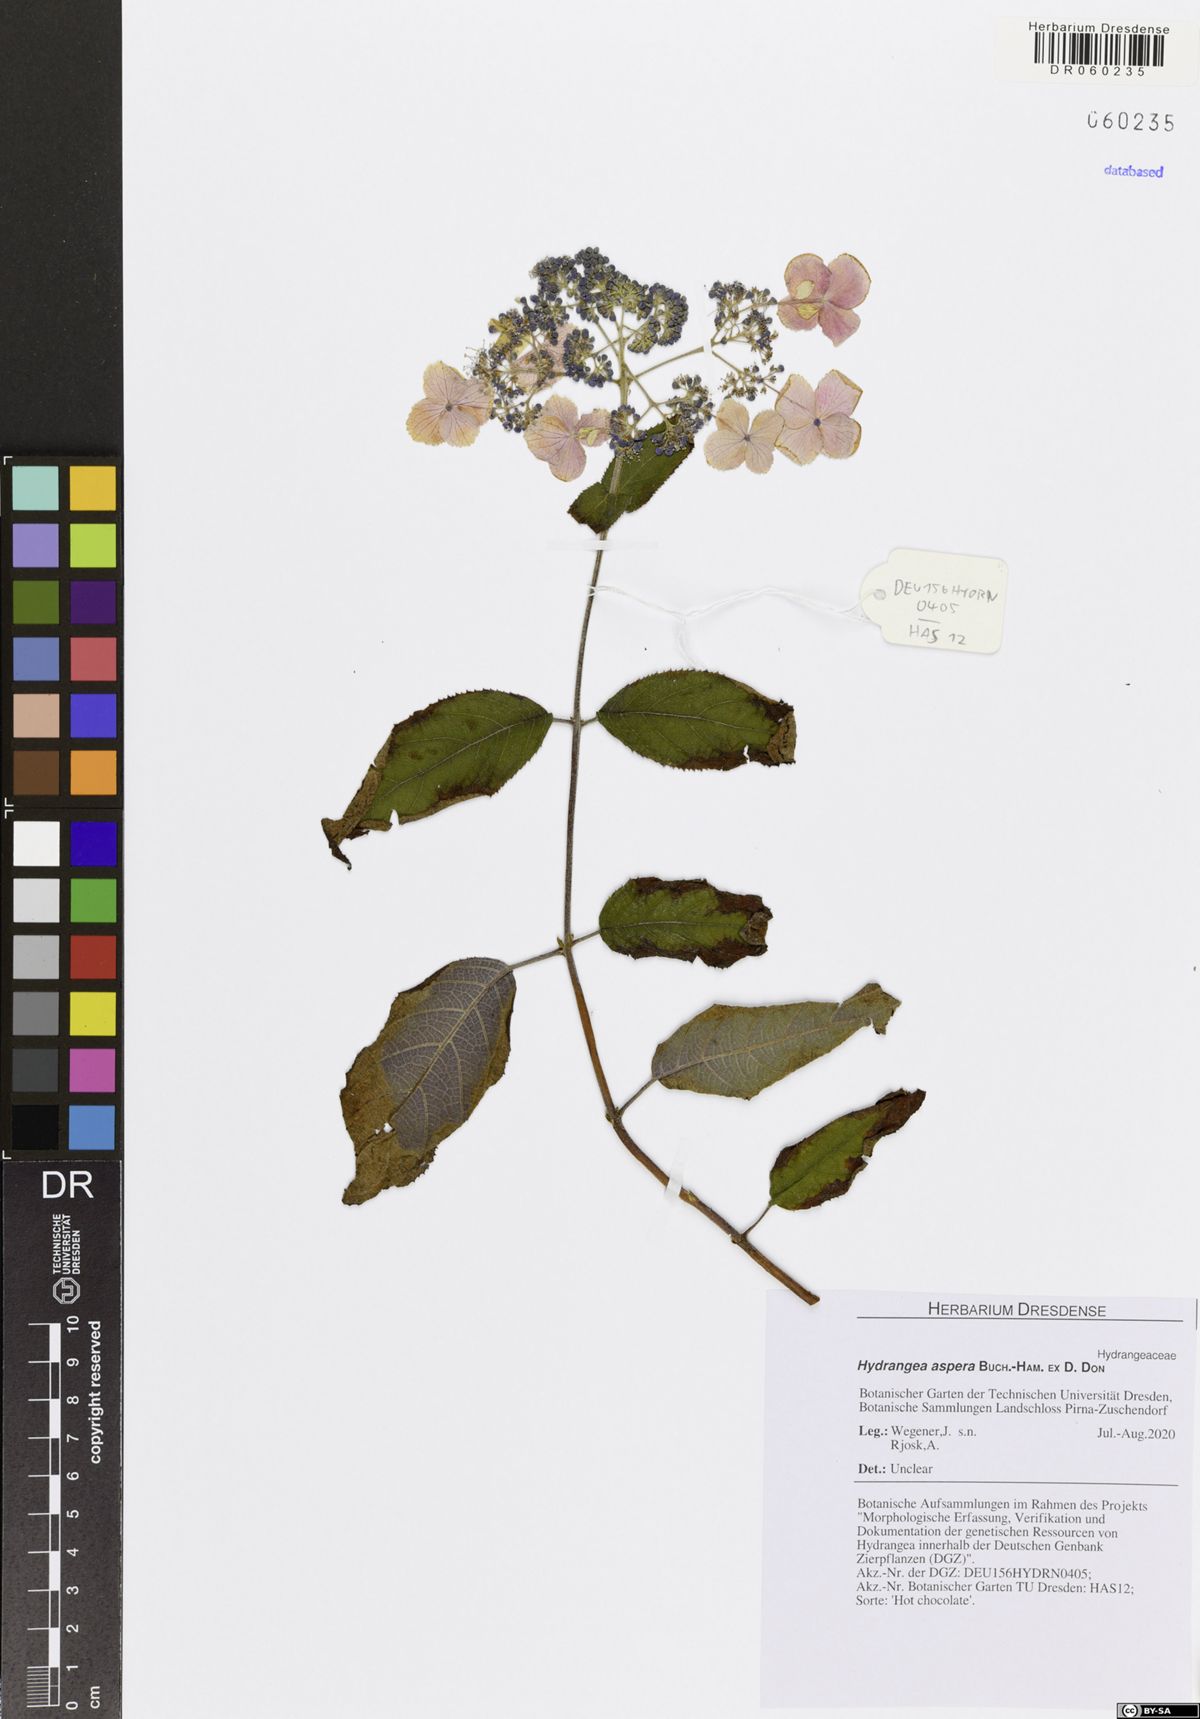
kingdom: Plantae
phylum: Tracheophyta
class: Magnoliopsida
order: Cornales
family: Hydrangeaceae
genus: Hydrangea
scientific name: Hydrangea aspera
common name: Rough-leaf hydrangea
